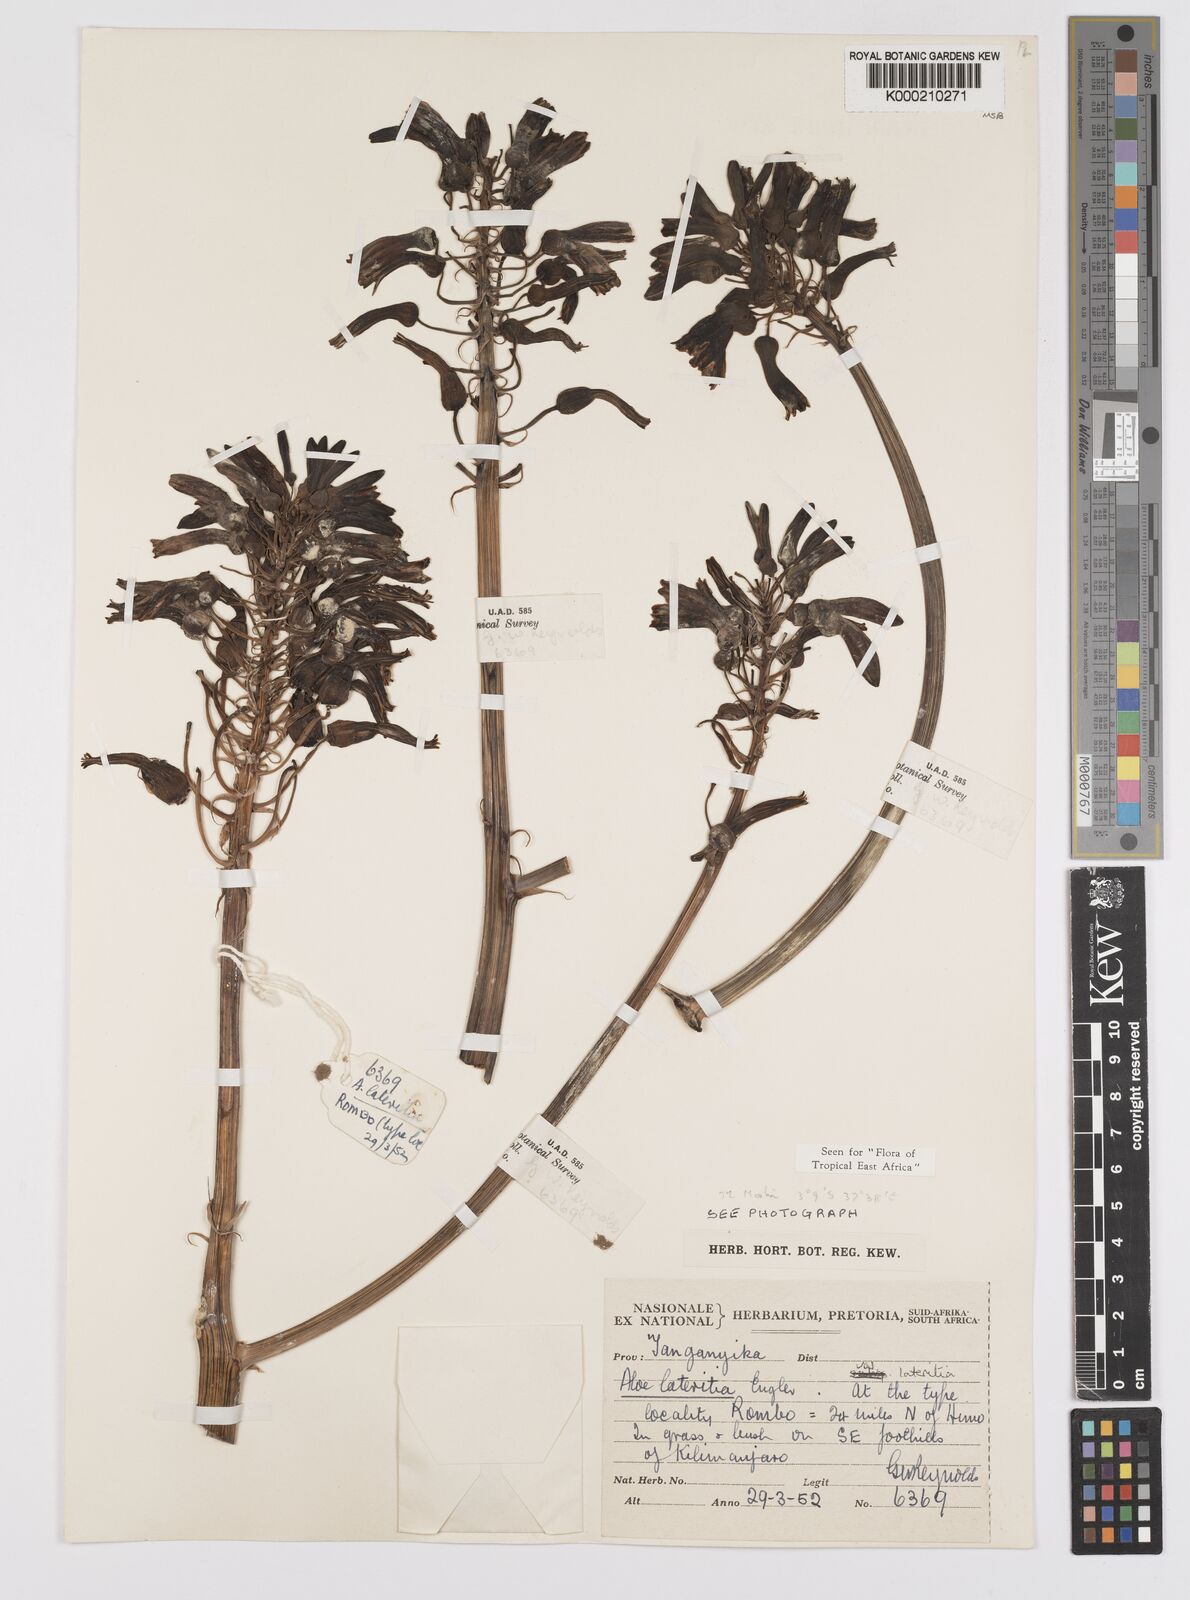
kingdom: Plantae
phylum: Tracheophyta
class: Liliopsida
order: Asparagales
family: Asphodelaceae
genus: Aloe
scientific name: Aloe lateritia
